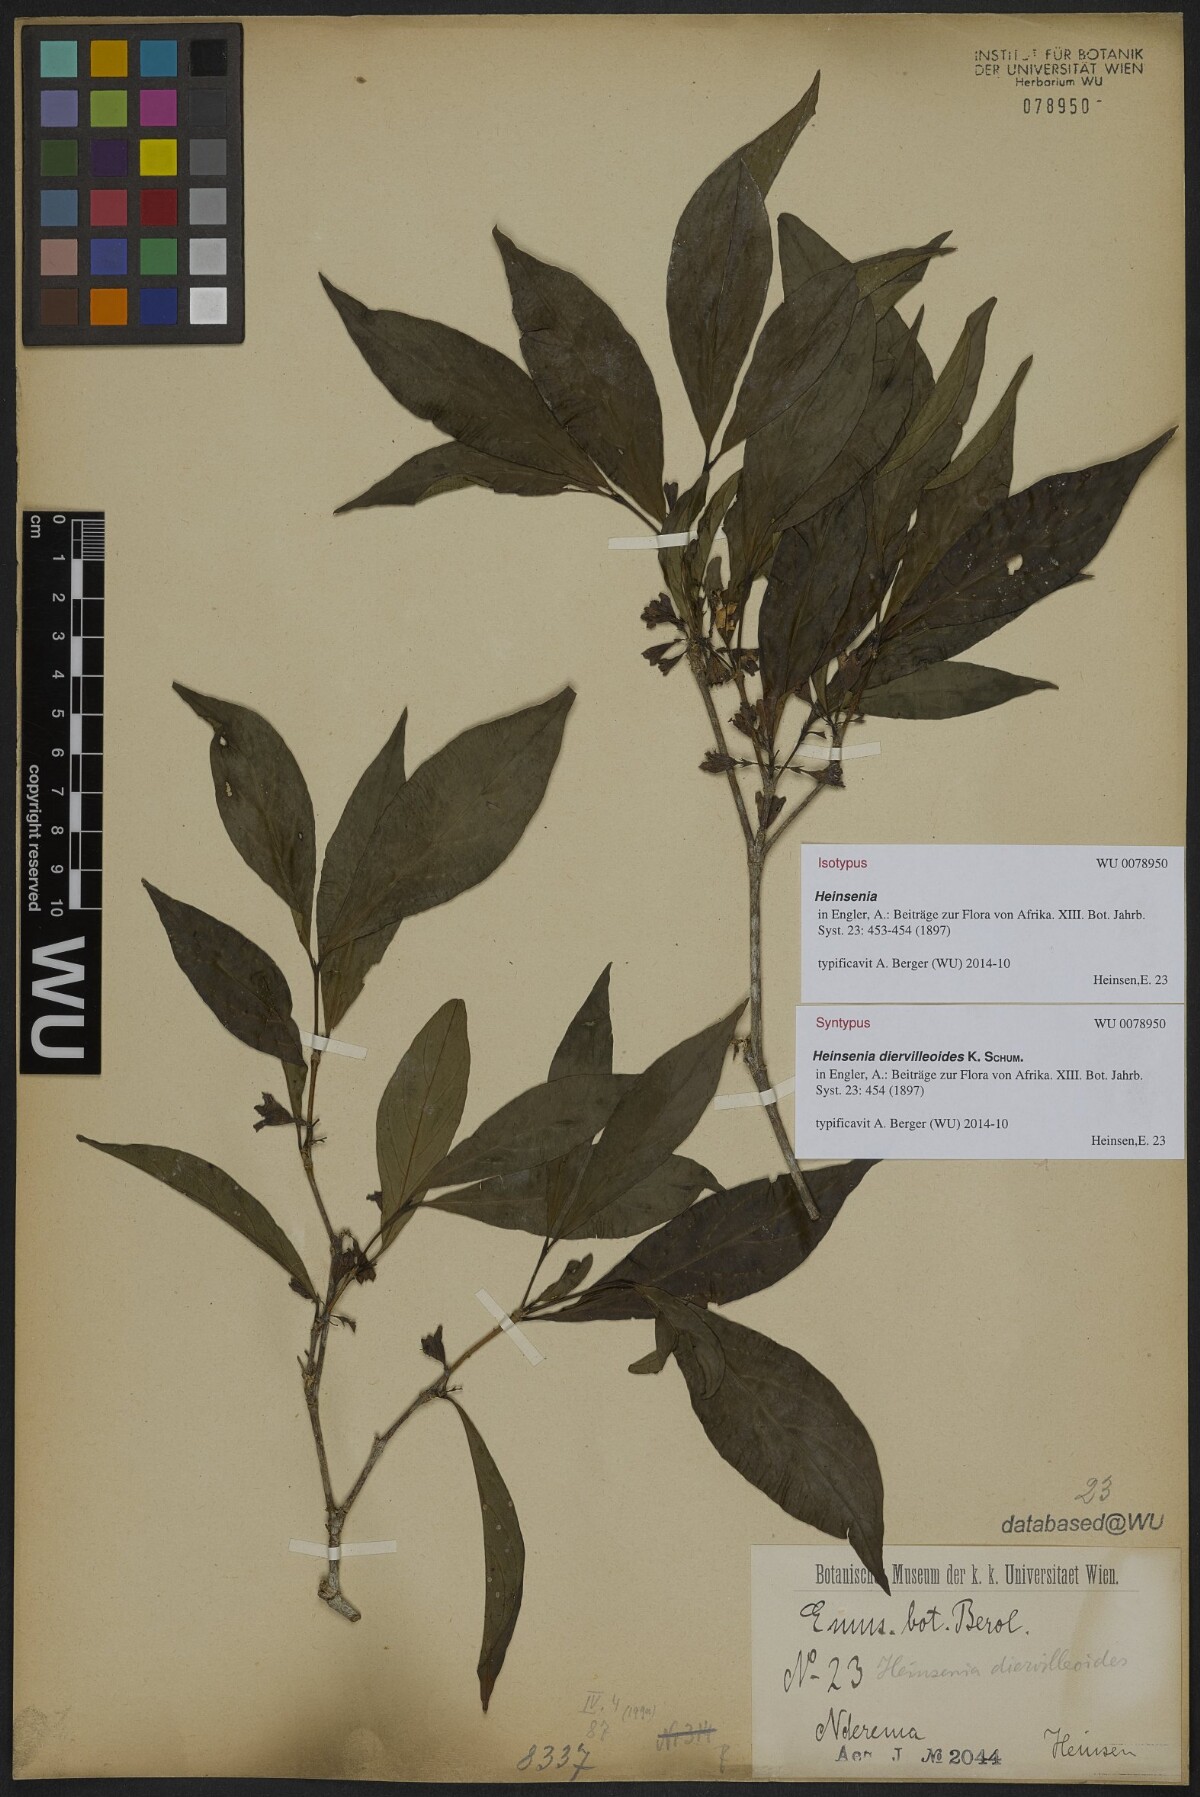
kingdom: Plantae
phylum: Tracheophyta
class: Magnoliopsida
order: Gentianales
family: Rubiaceae
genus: Heinsenia
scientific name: Heinsenia diervilleoides
